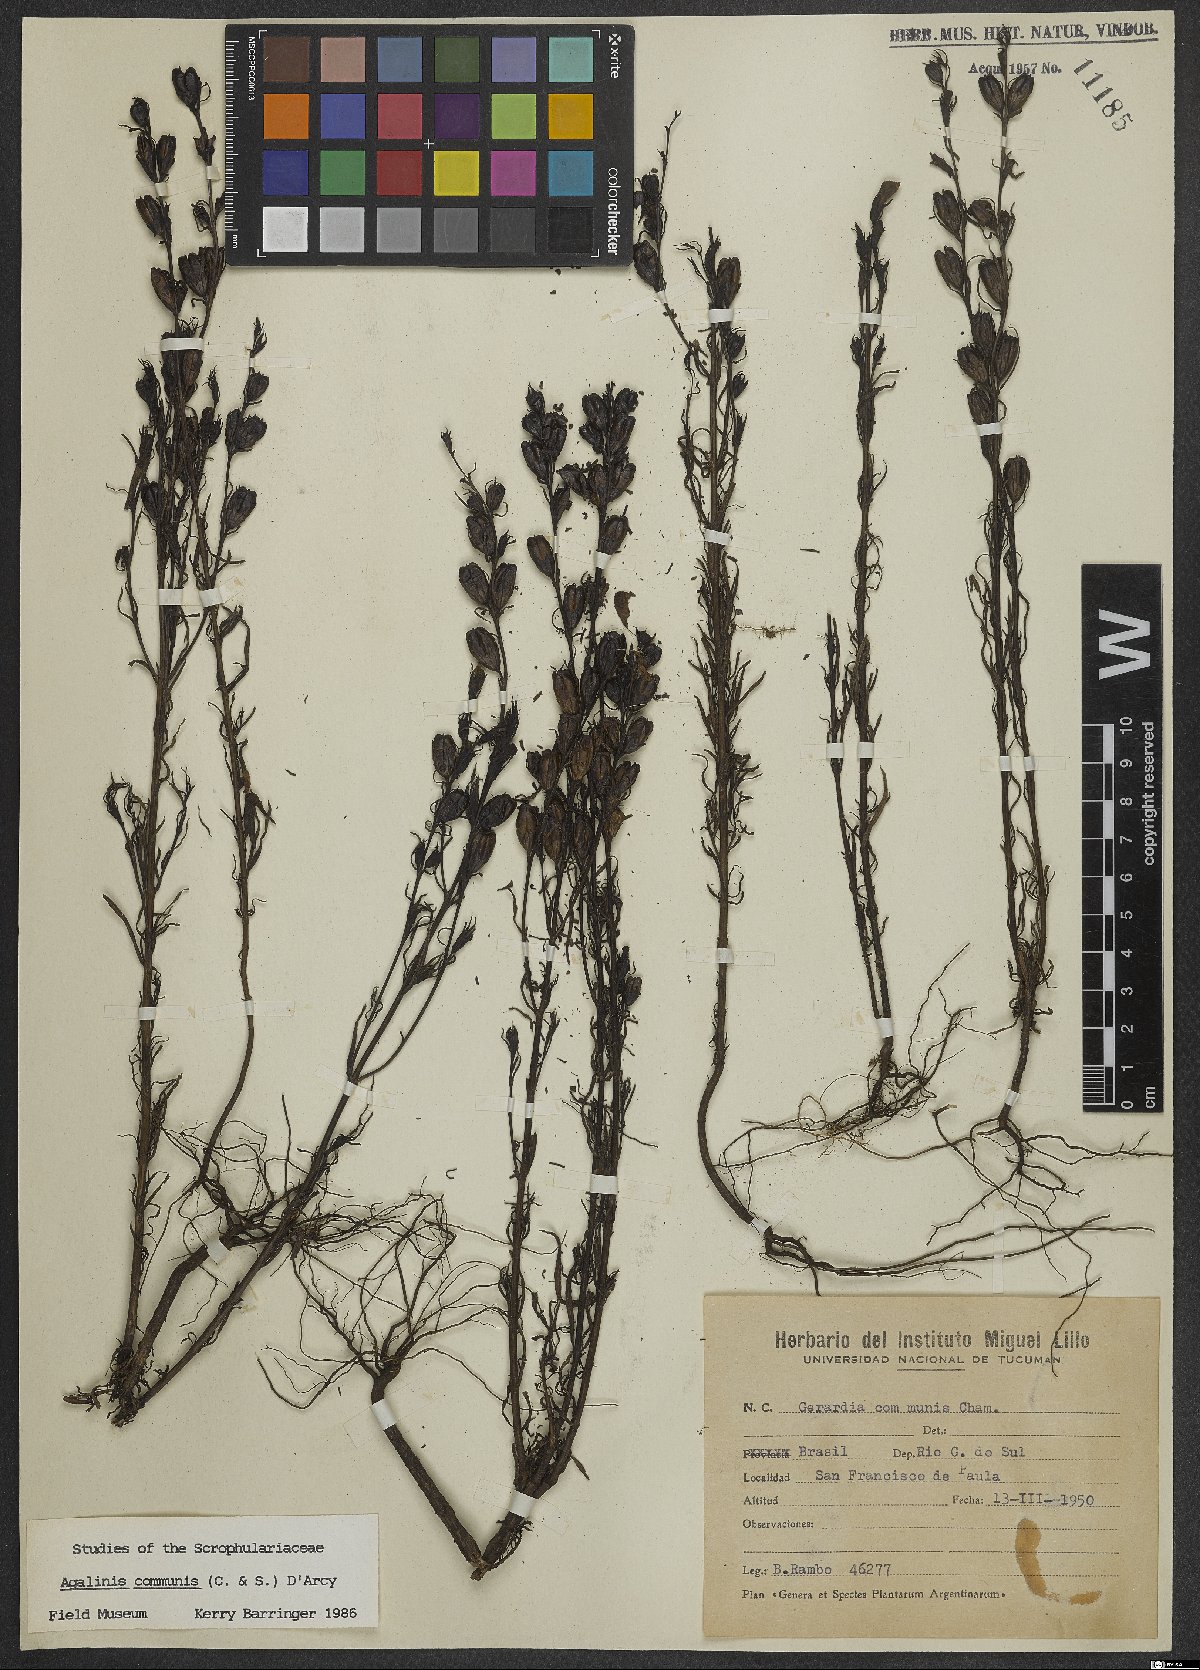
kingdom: Plantae
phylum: Tracheophyta
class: Magnoliopsida
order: Lamiales
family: Scrophulariaceae
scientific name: Scrophulariaceae
